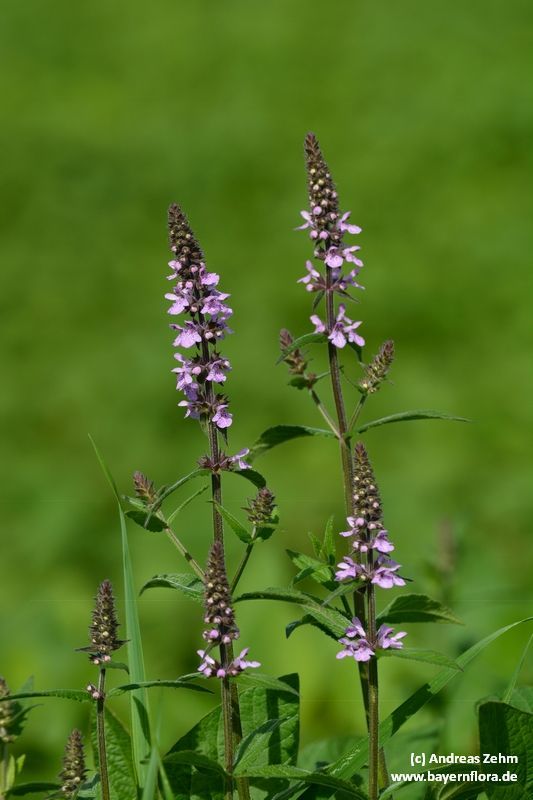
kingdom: Plantae
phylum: Tracheophyta
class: Magnoliopsida
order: Lamiales
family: Lamiaceae
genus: Stachys
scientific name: Stachys palustris
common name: Marsh woundwort
